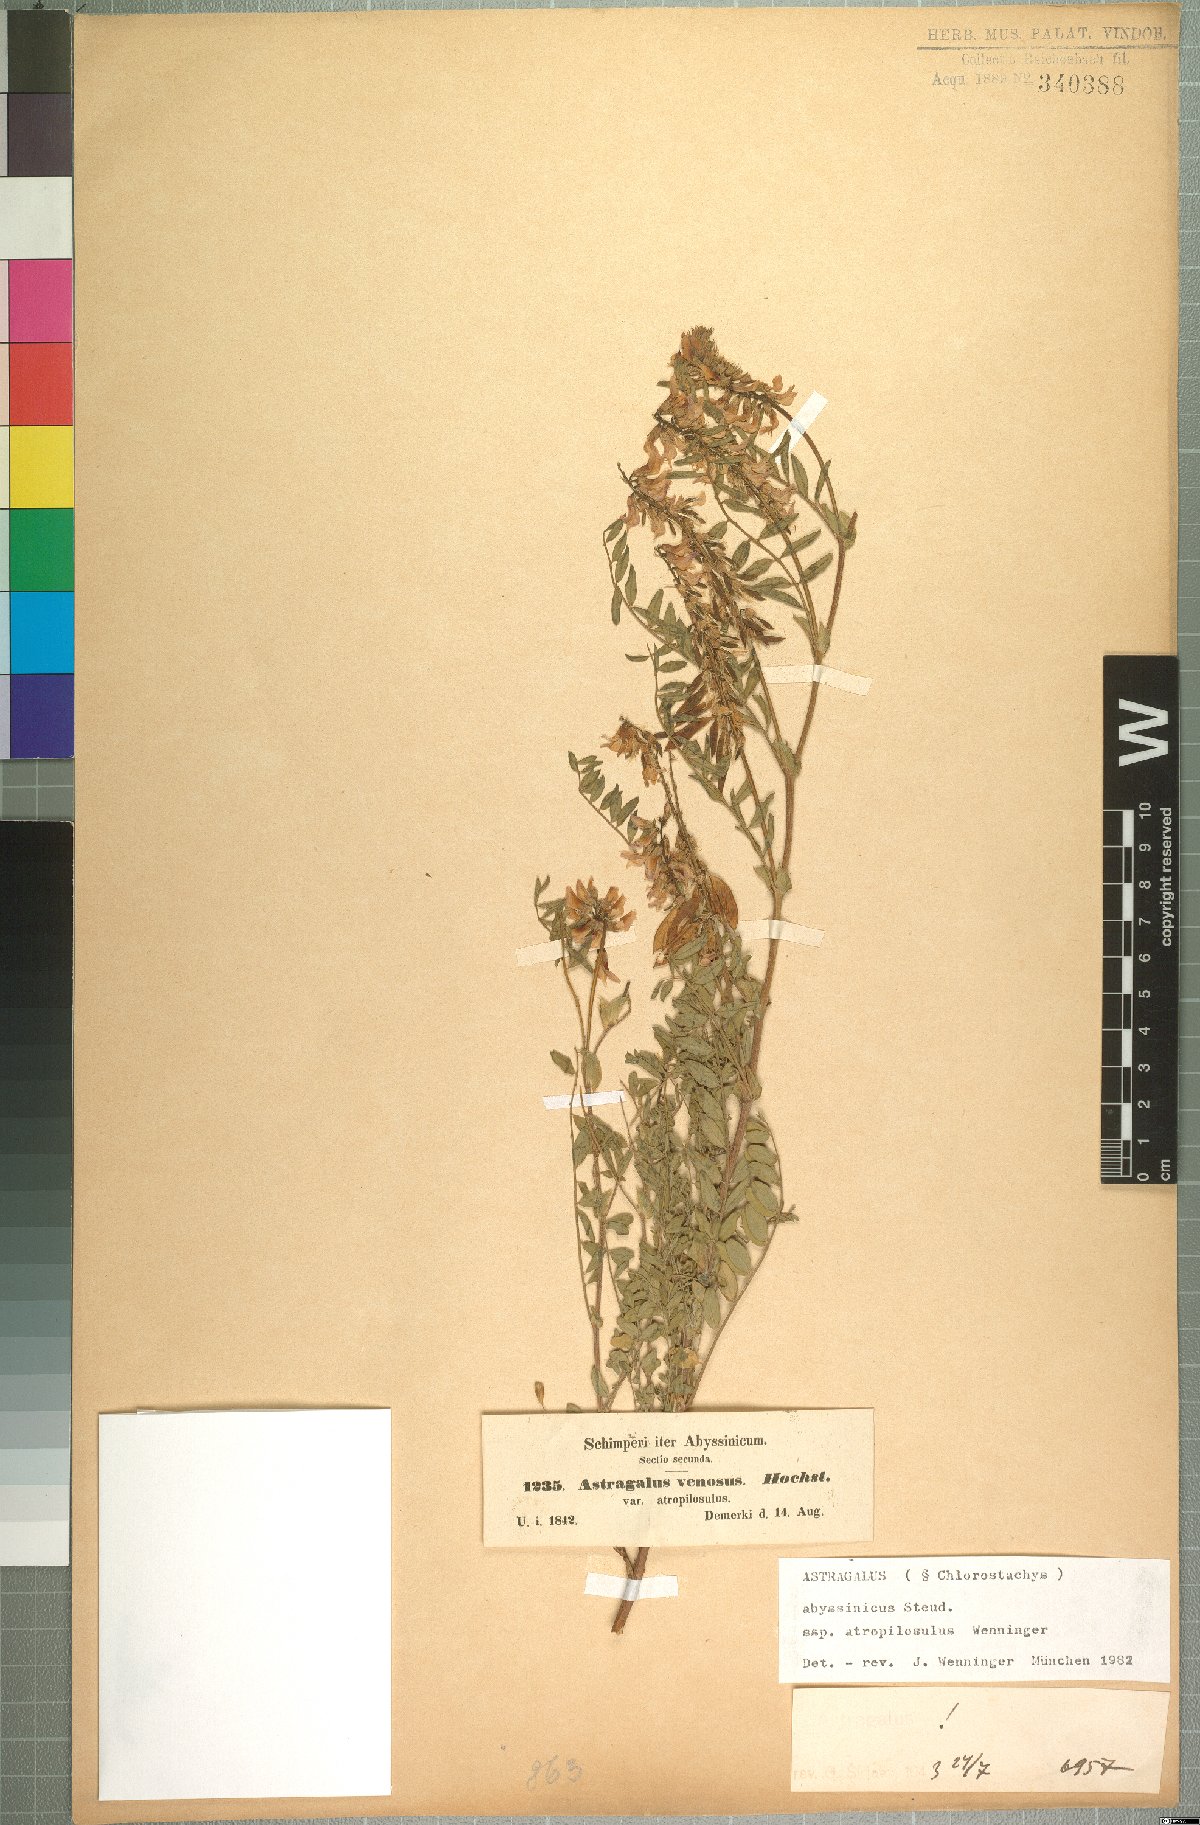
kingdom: Plantae
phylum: Tracheophyta
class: Magnoliopsida
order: Fabales
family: Fabaceae
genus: Astragalus
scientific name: Astragalus atropilosulus
